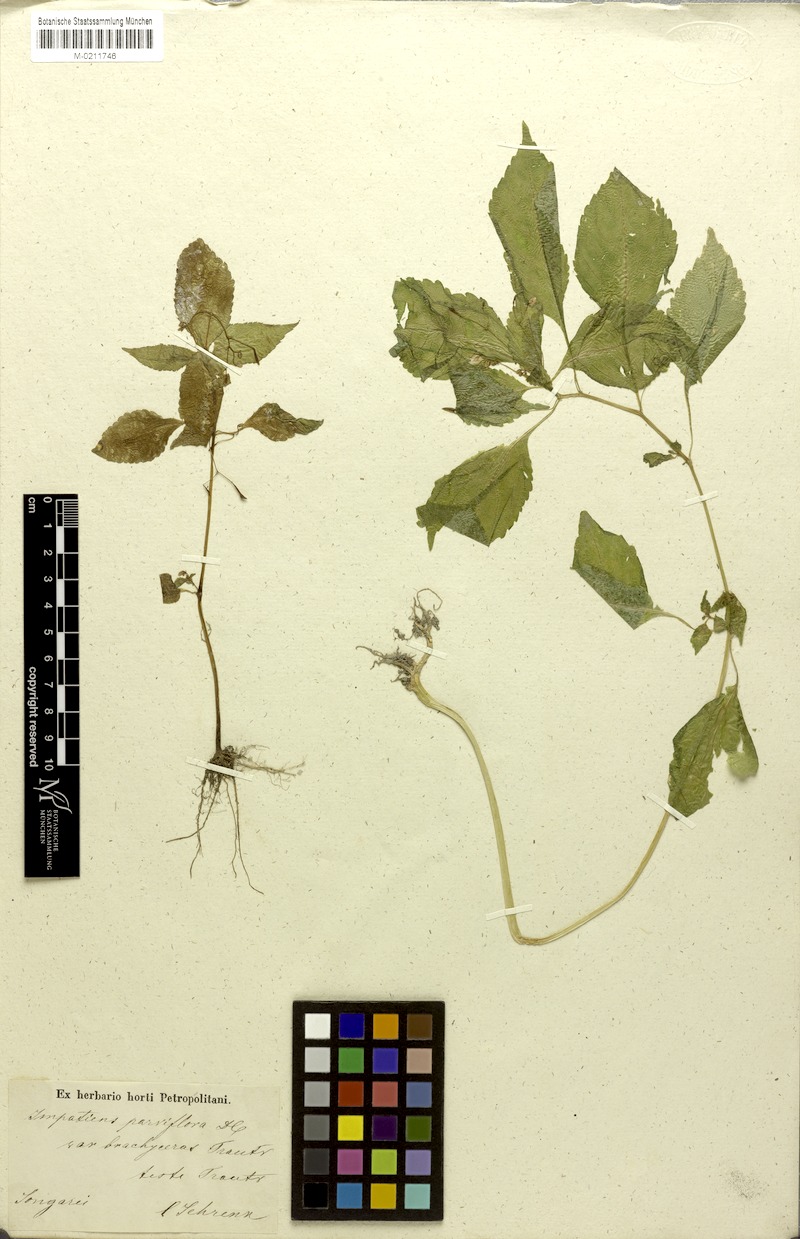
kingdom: Plantae
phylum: Tracheophyta
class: Magnoliopsida
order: Ericales
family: Balsaminaceae
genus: Impatiens
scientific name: Impatiens brachycentra
